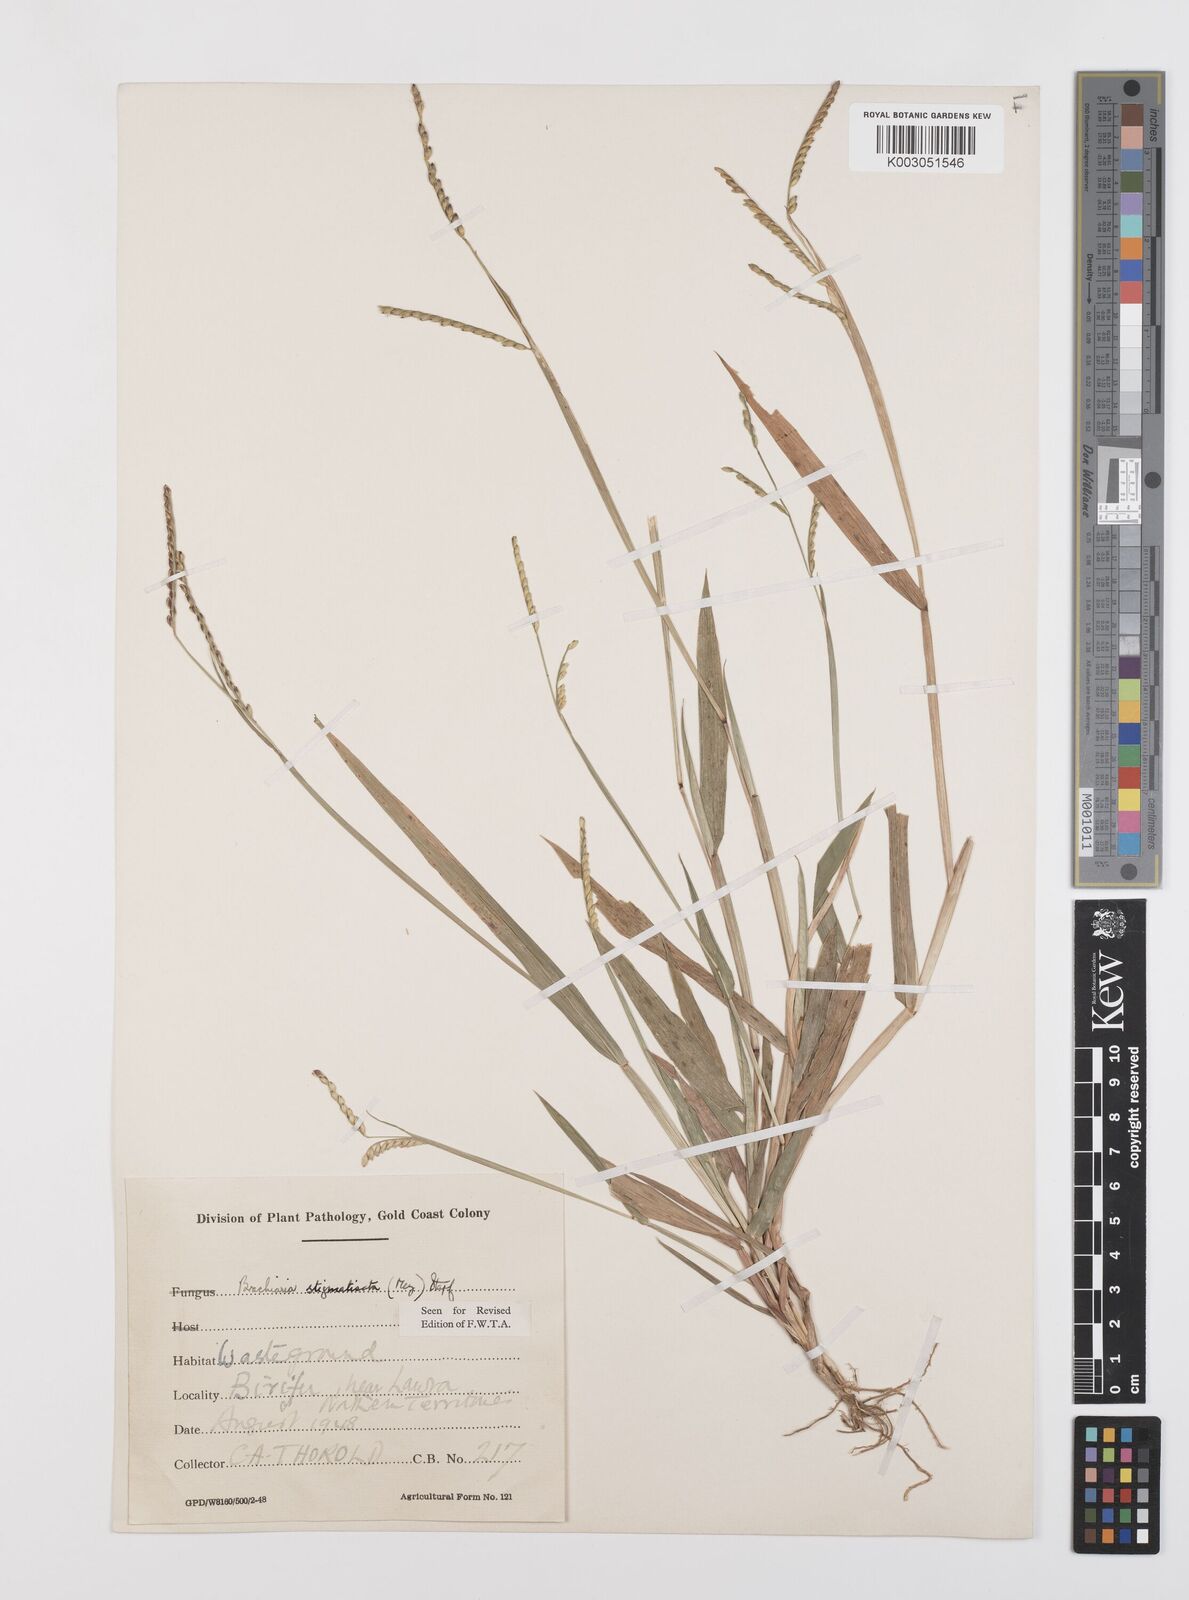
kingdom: Plantae
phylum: Tracheophyta
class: Liliopsida
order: Poales
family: Poaceae
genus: Urochloa
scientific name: Urochloa stigmatisata
